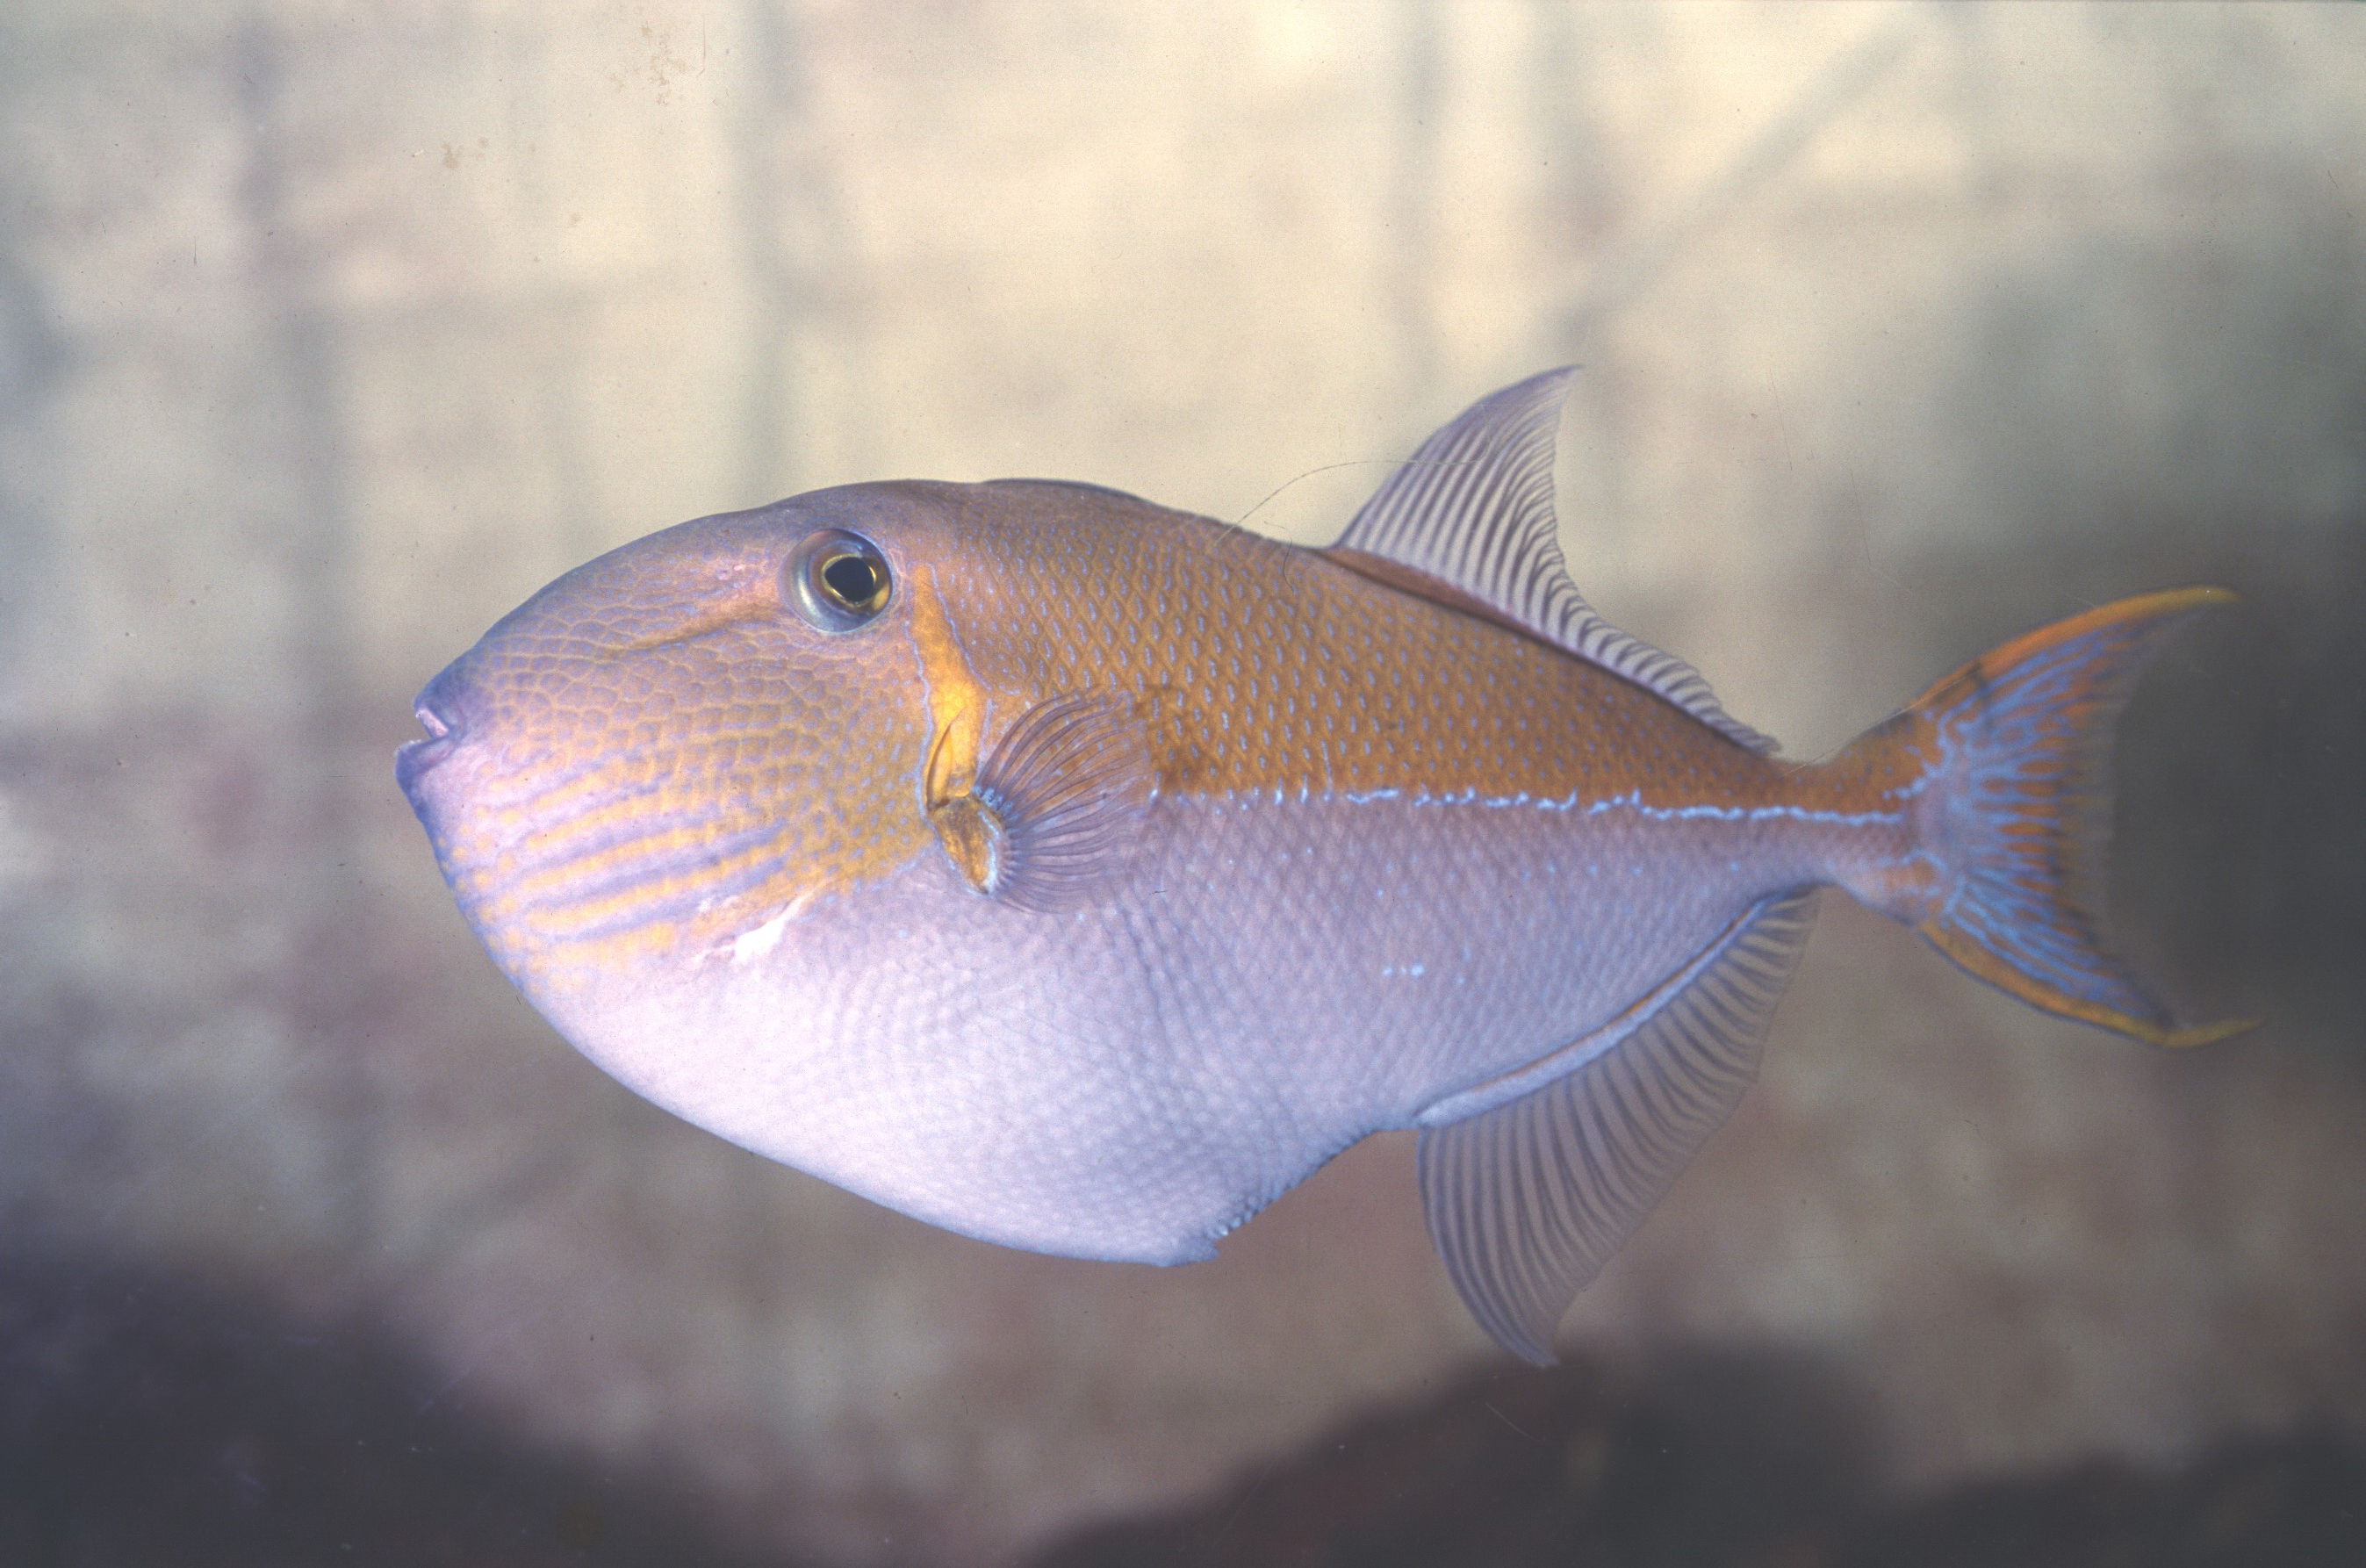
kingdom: Animalia
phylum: Chordata
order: Tetraodontiformes
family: Balistidae
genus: Xanthichthys
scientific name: Xanthichthys caeruleolineatus
